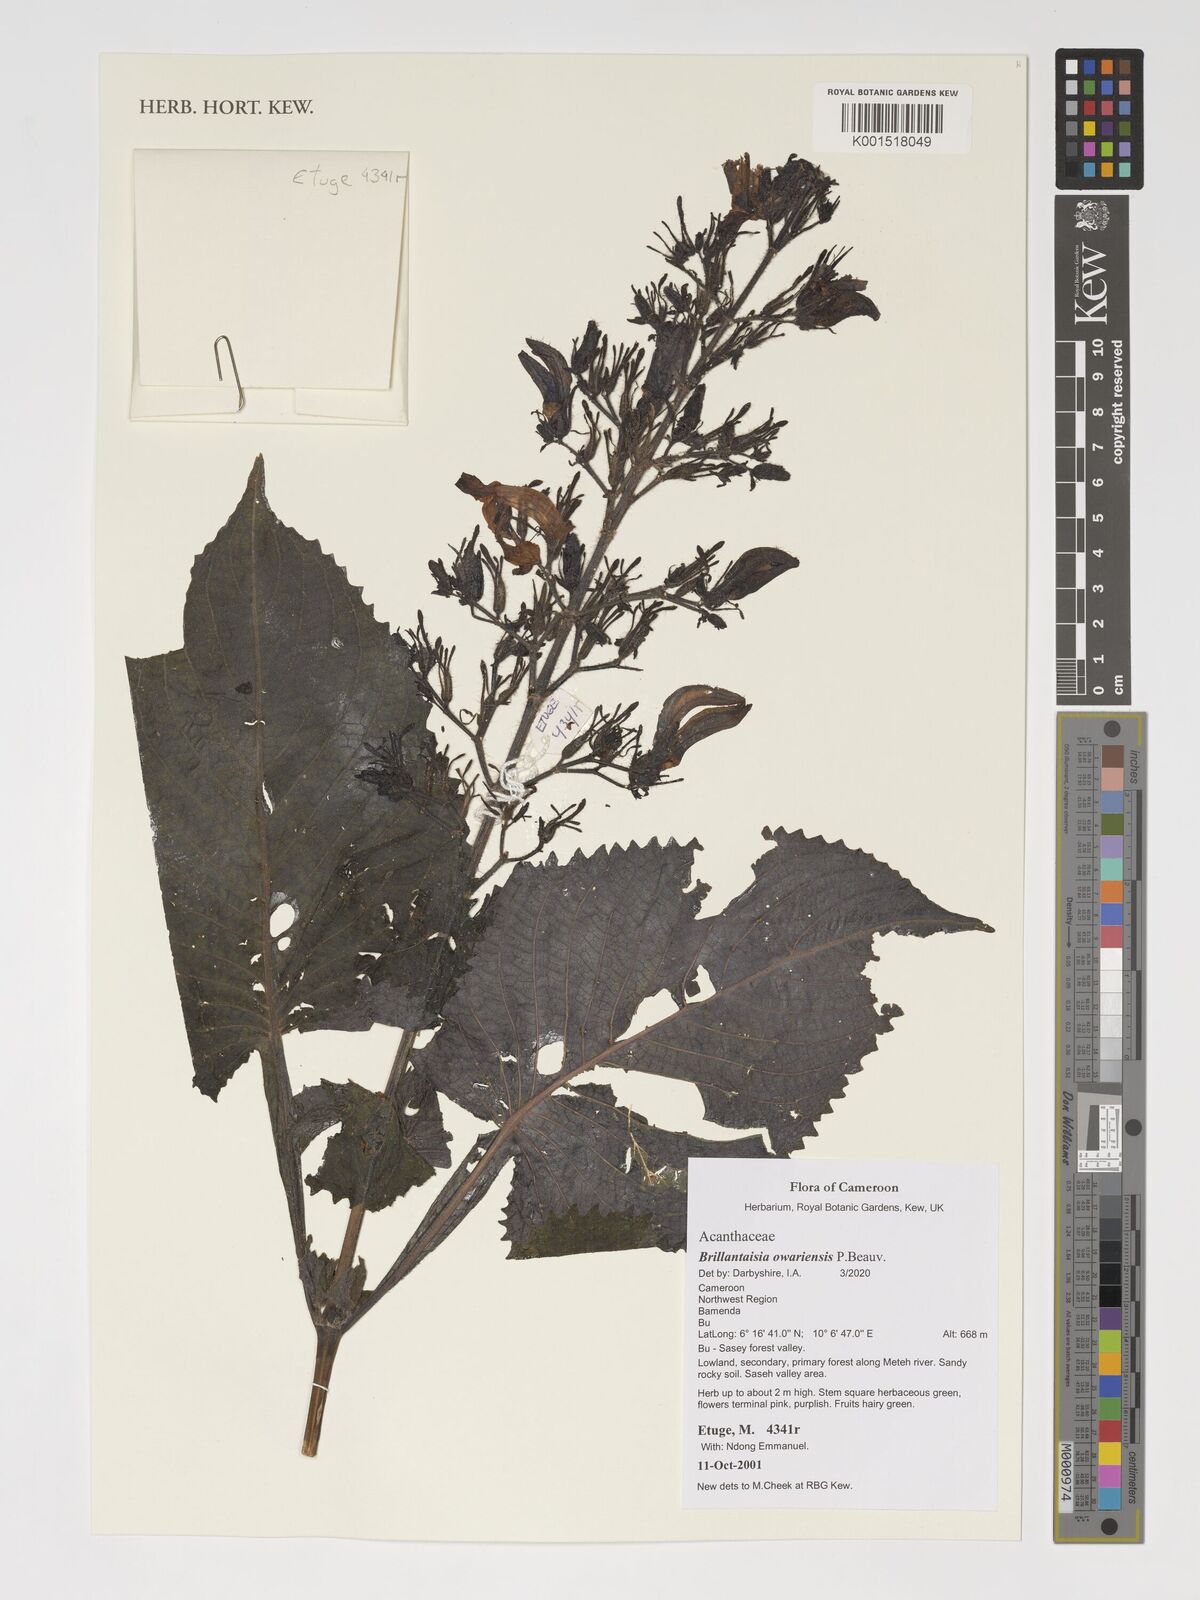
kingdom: Plantae
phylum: Tracheophyta
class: Magnoliopsida
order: Lamiales
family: Acanthaceae
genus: Brillantaisia
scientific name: Brillantaisia owariensis
